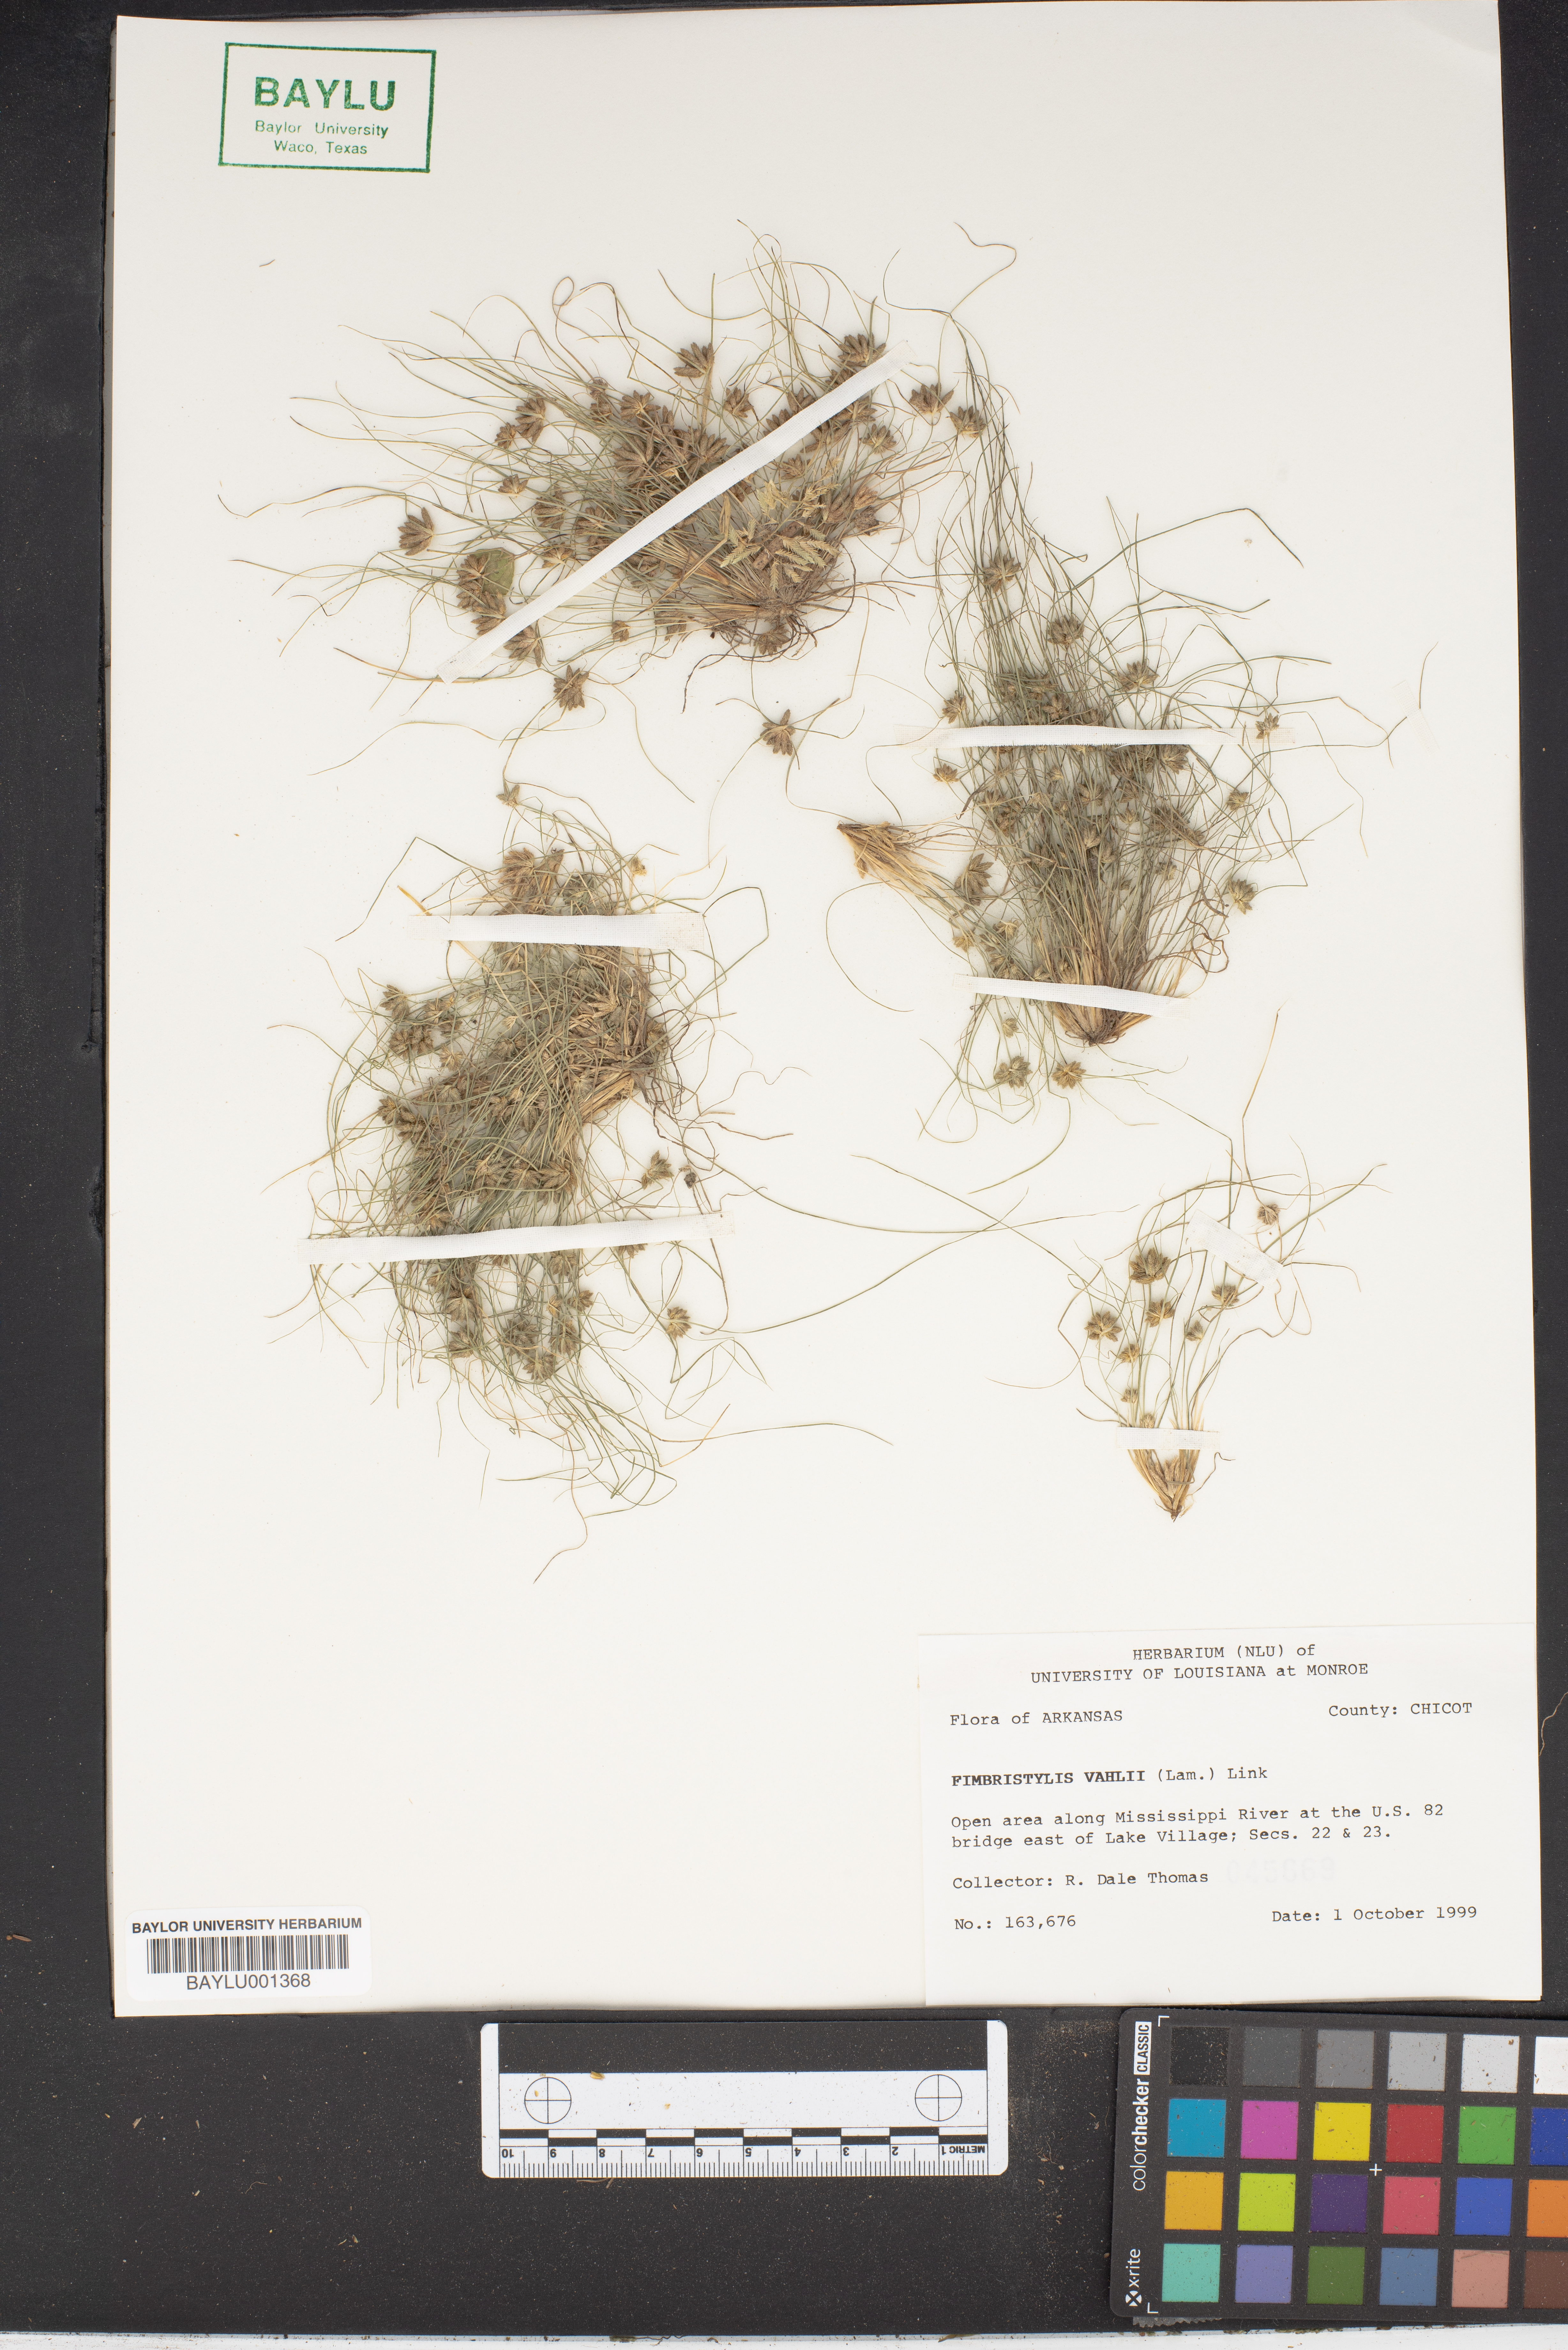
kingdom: Plantae
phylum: Tracheophyta
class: Liliopsida
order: Poales
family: Cyperaceae
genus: Fimbristylis
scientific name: Fimbristylis vahlii
